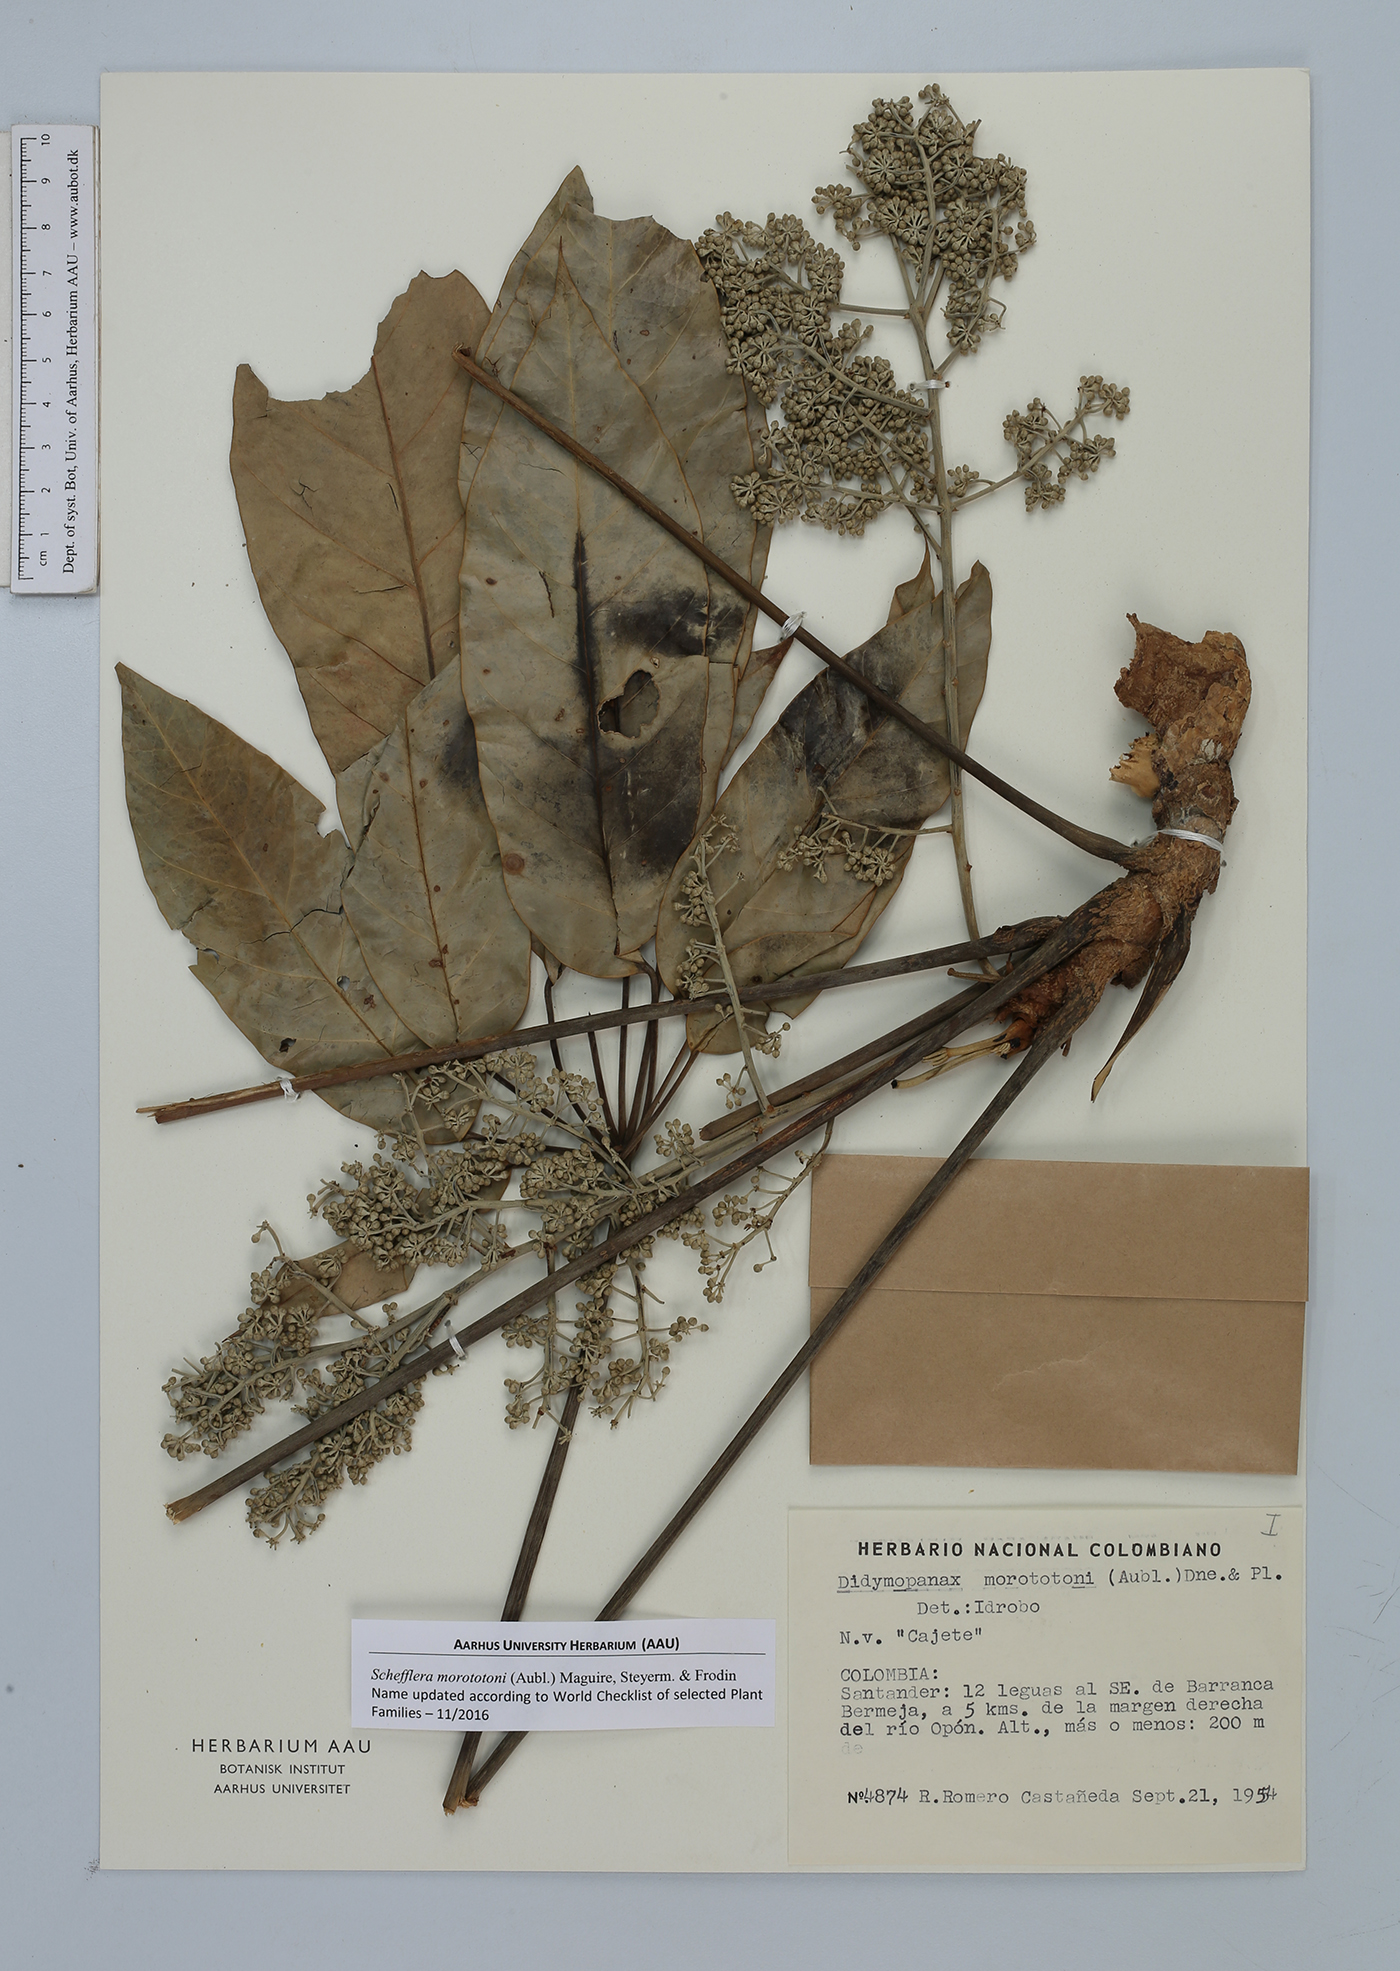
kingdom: Plantae
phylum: Tracheophyta
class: Magnoliopsida
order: Apiales
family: Araliaceae
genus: Didymopanax
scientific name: Didymopanax morototoni
